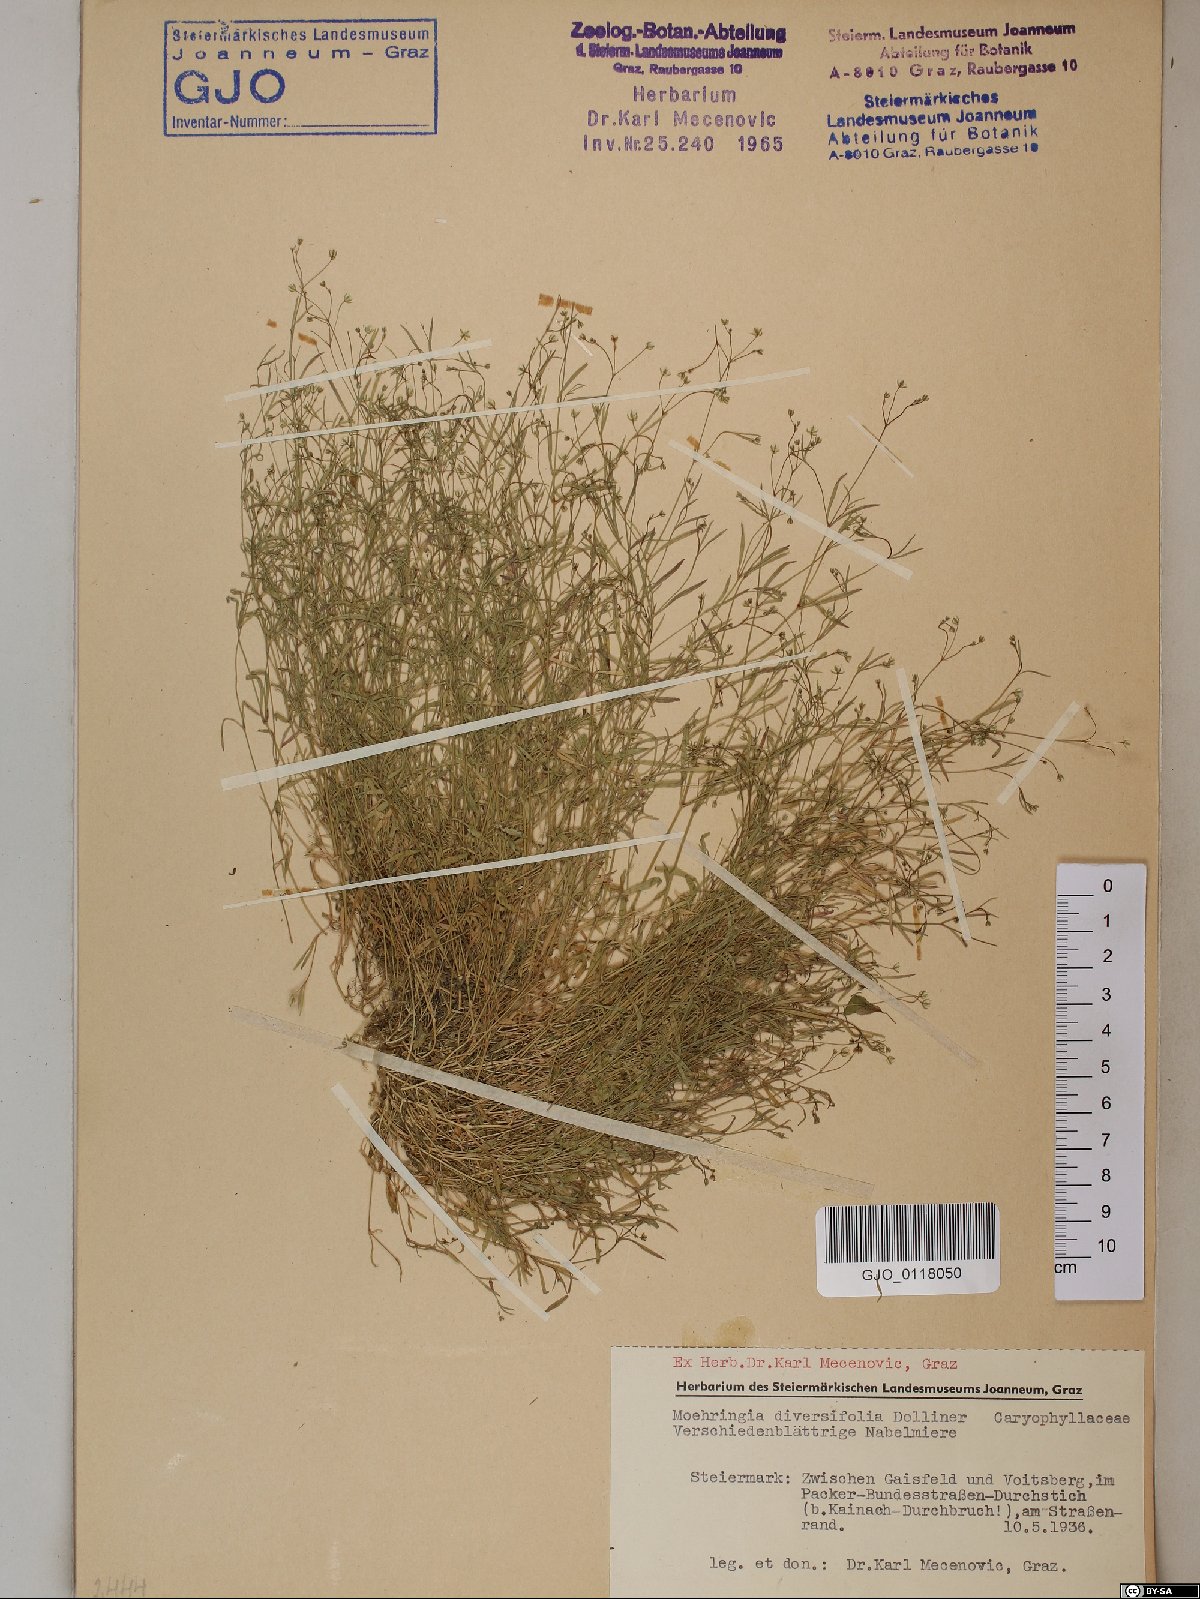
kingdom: Plantae
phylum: Tracheophyta
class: Magnoliopsida
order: Caryophyllales
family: Caryophyllaceae
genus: Moehringia
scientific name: Moehringia diversifolia
